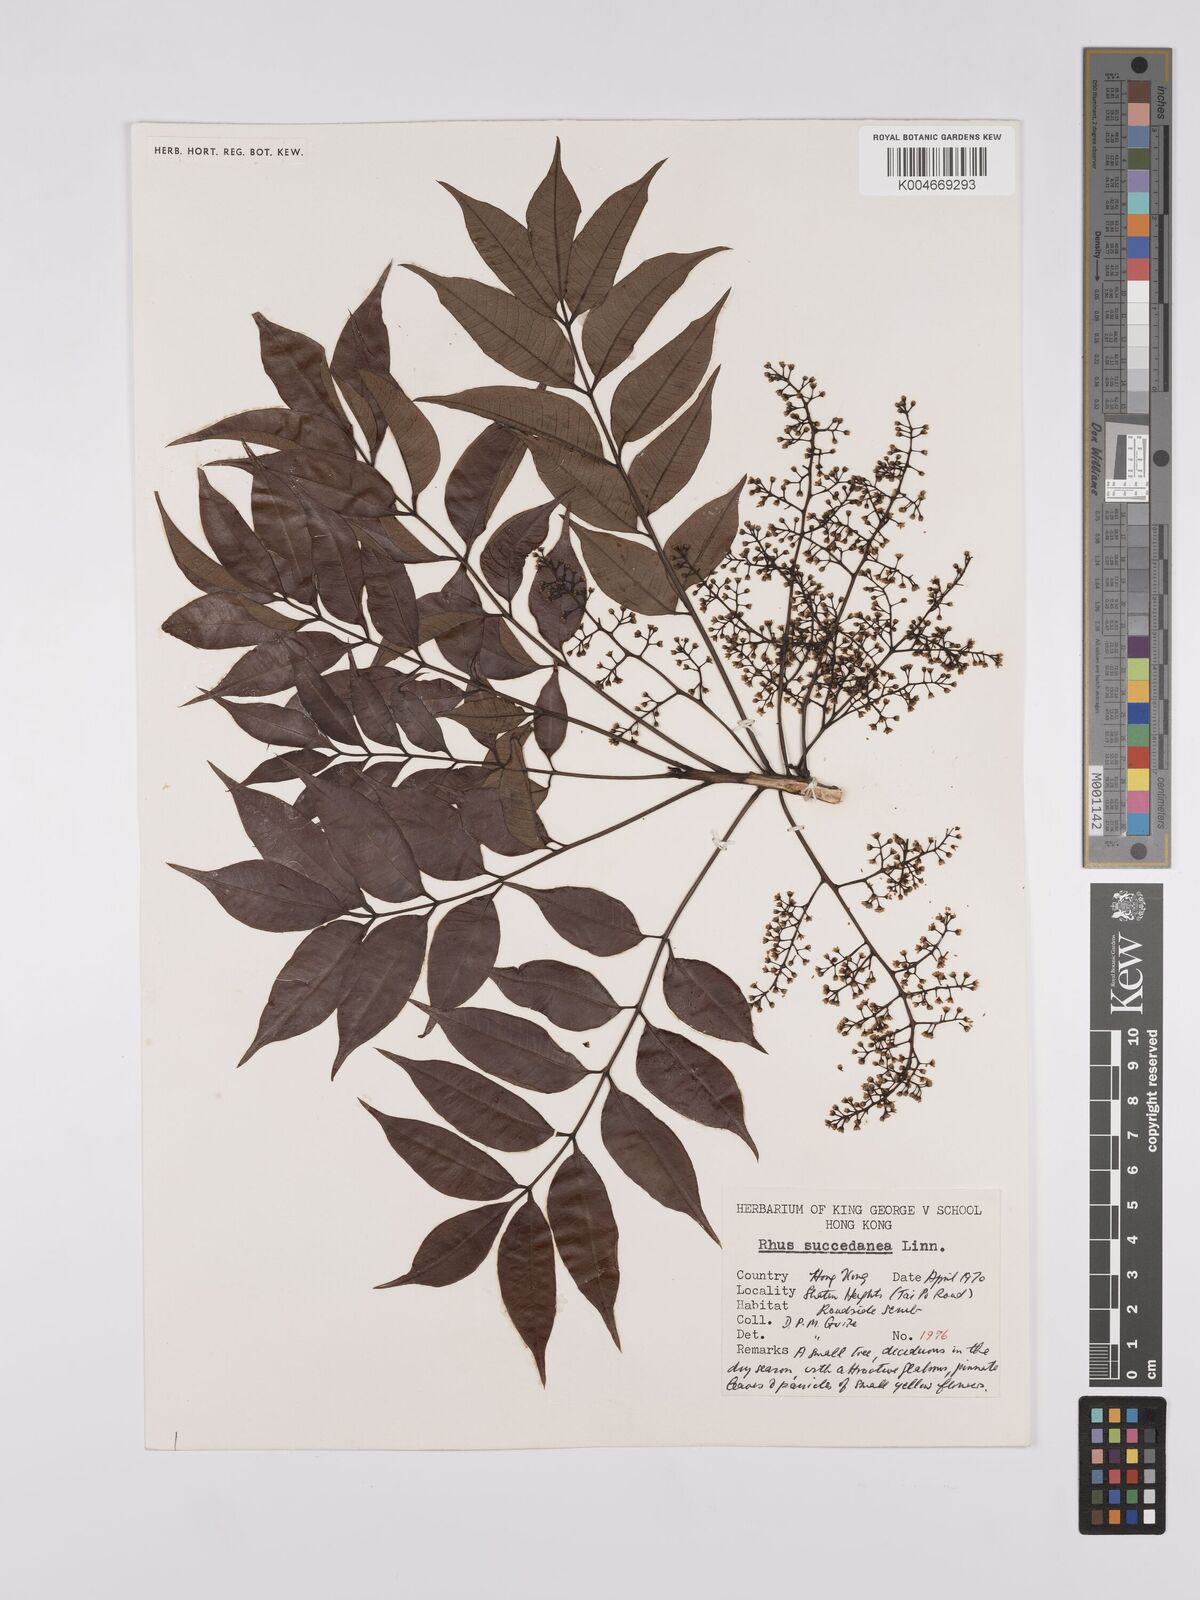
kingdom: Plantae
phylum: Tracheophyta
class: Magnoliopsida
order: Sapindales
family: Anacardiaceae
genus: Toxicodendron
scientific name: Toxicodendron succedaneum
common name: Wax tree
